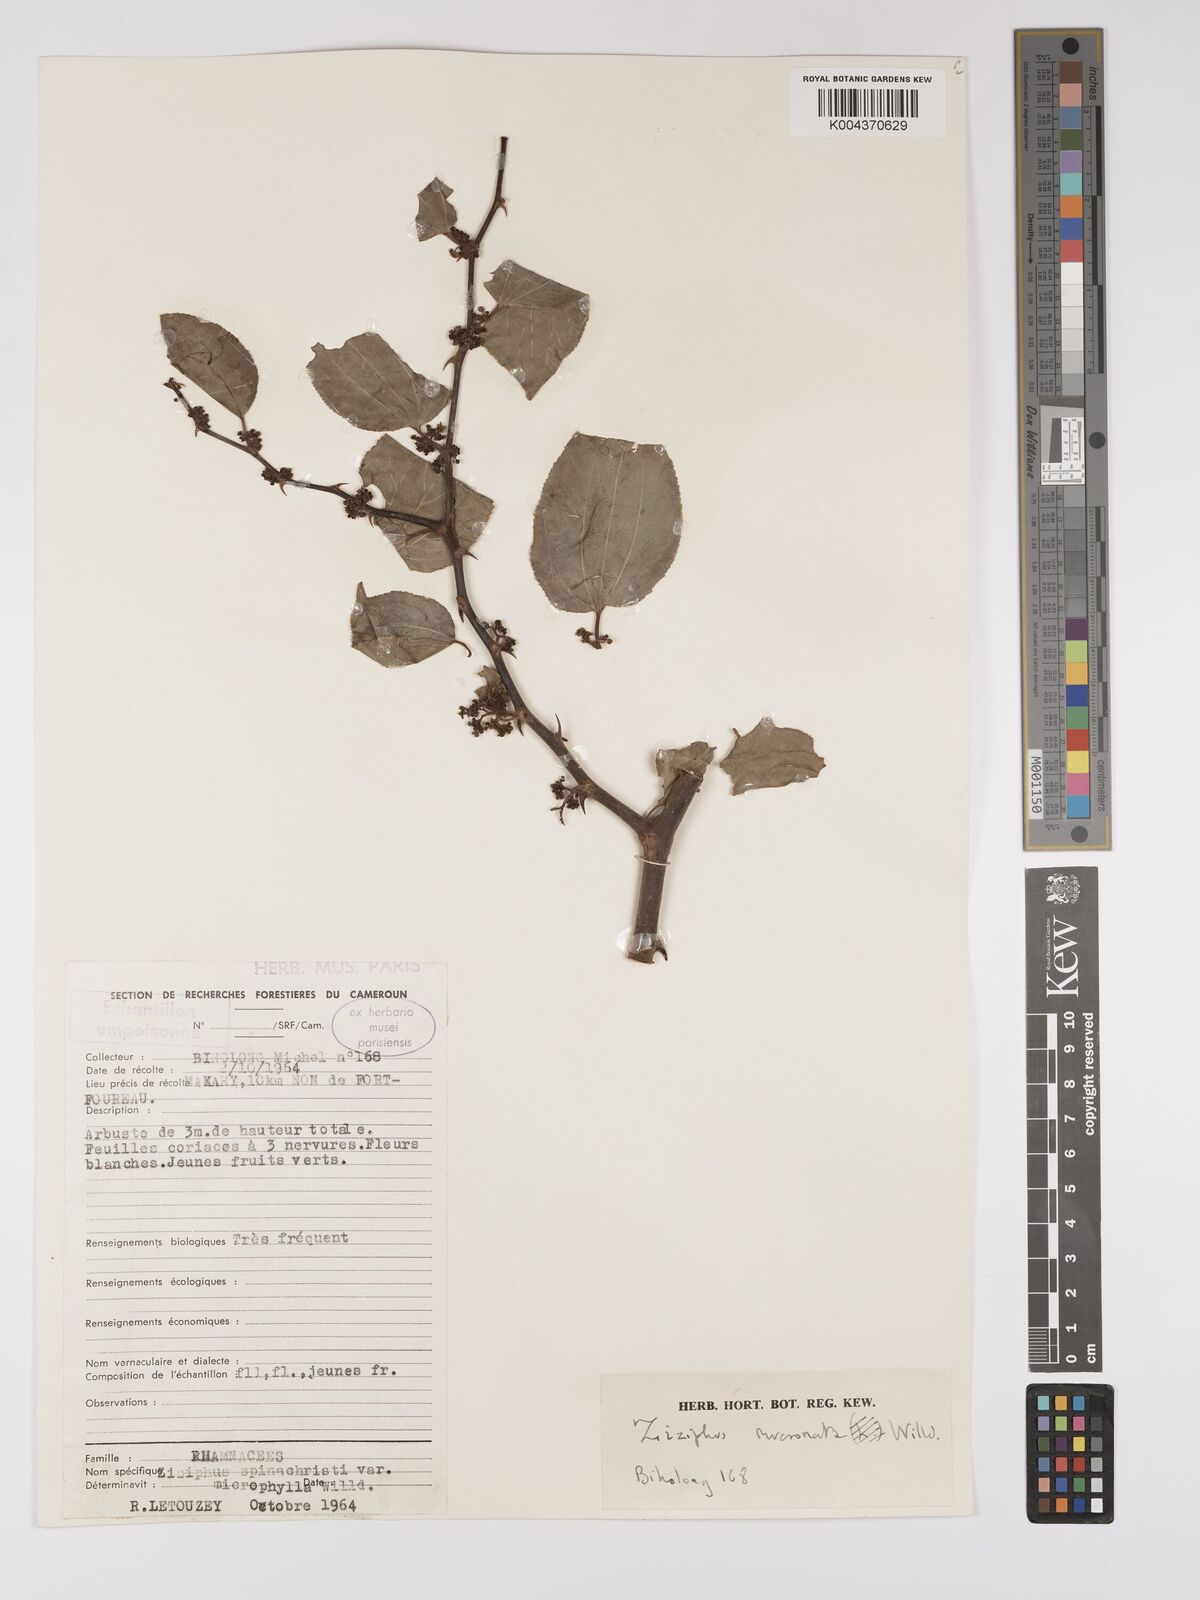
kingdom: Plantae
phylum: Tracheophyta
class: Magnoliopsida
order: Rosales
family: Rhamnaceae
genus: Ziziphus
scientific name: Ziziphus mucronata
